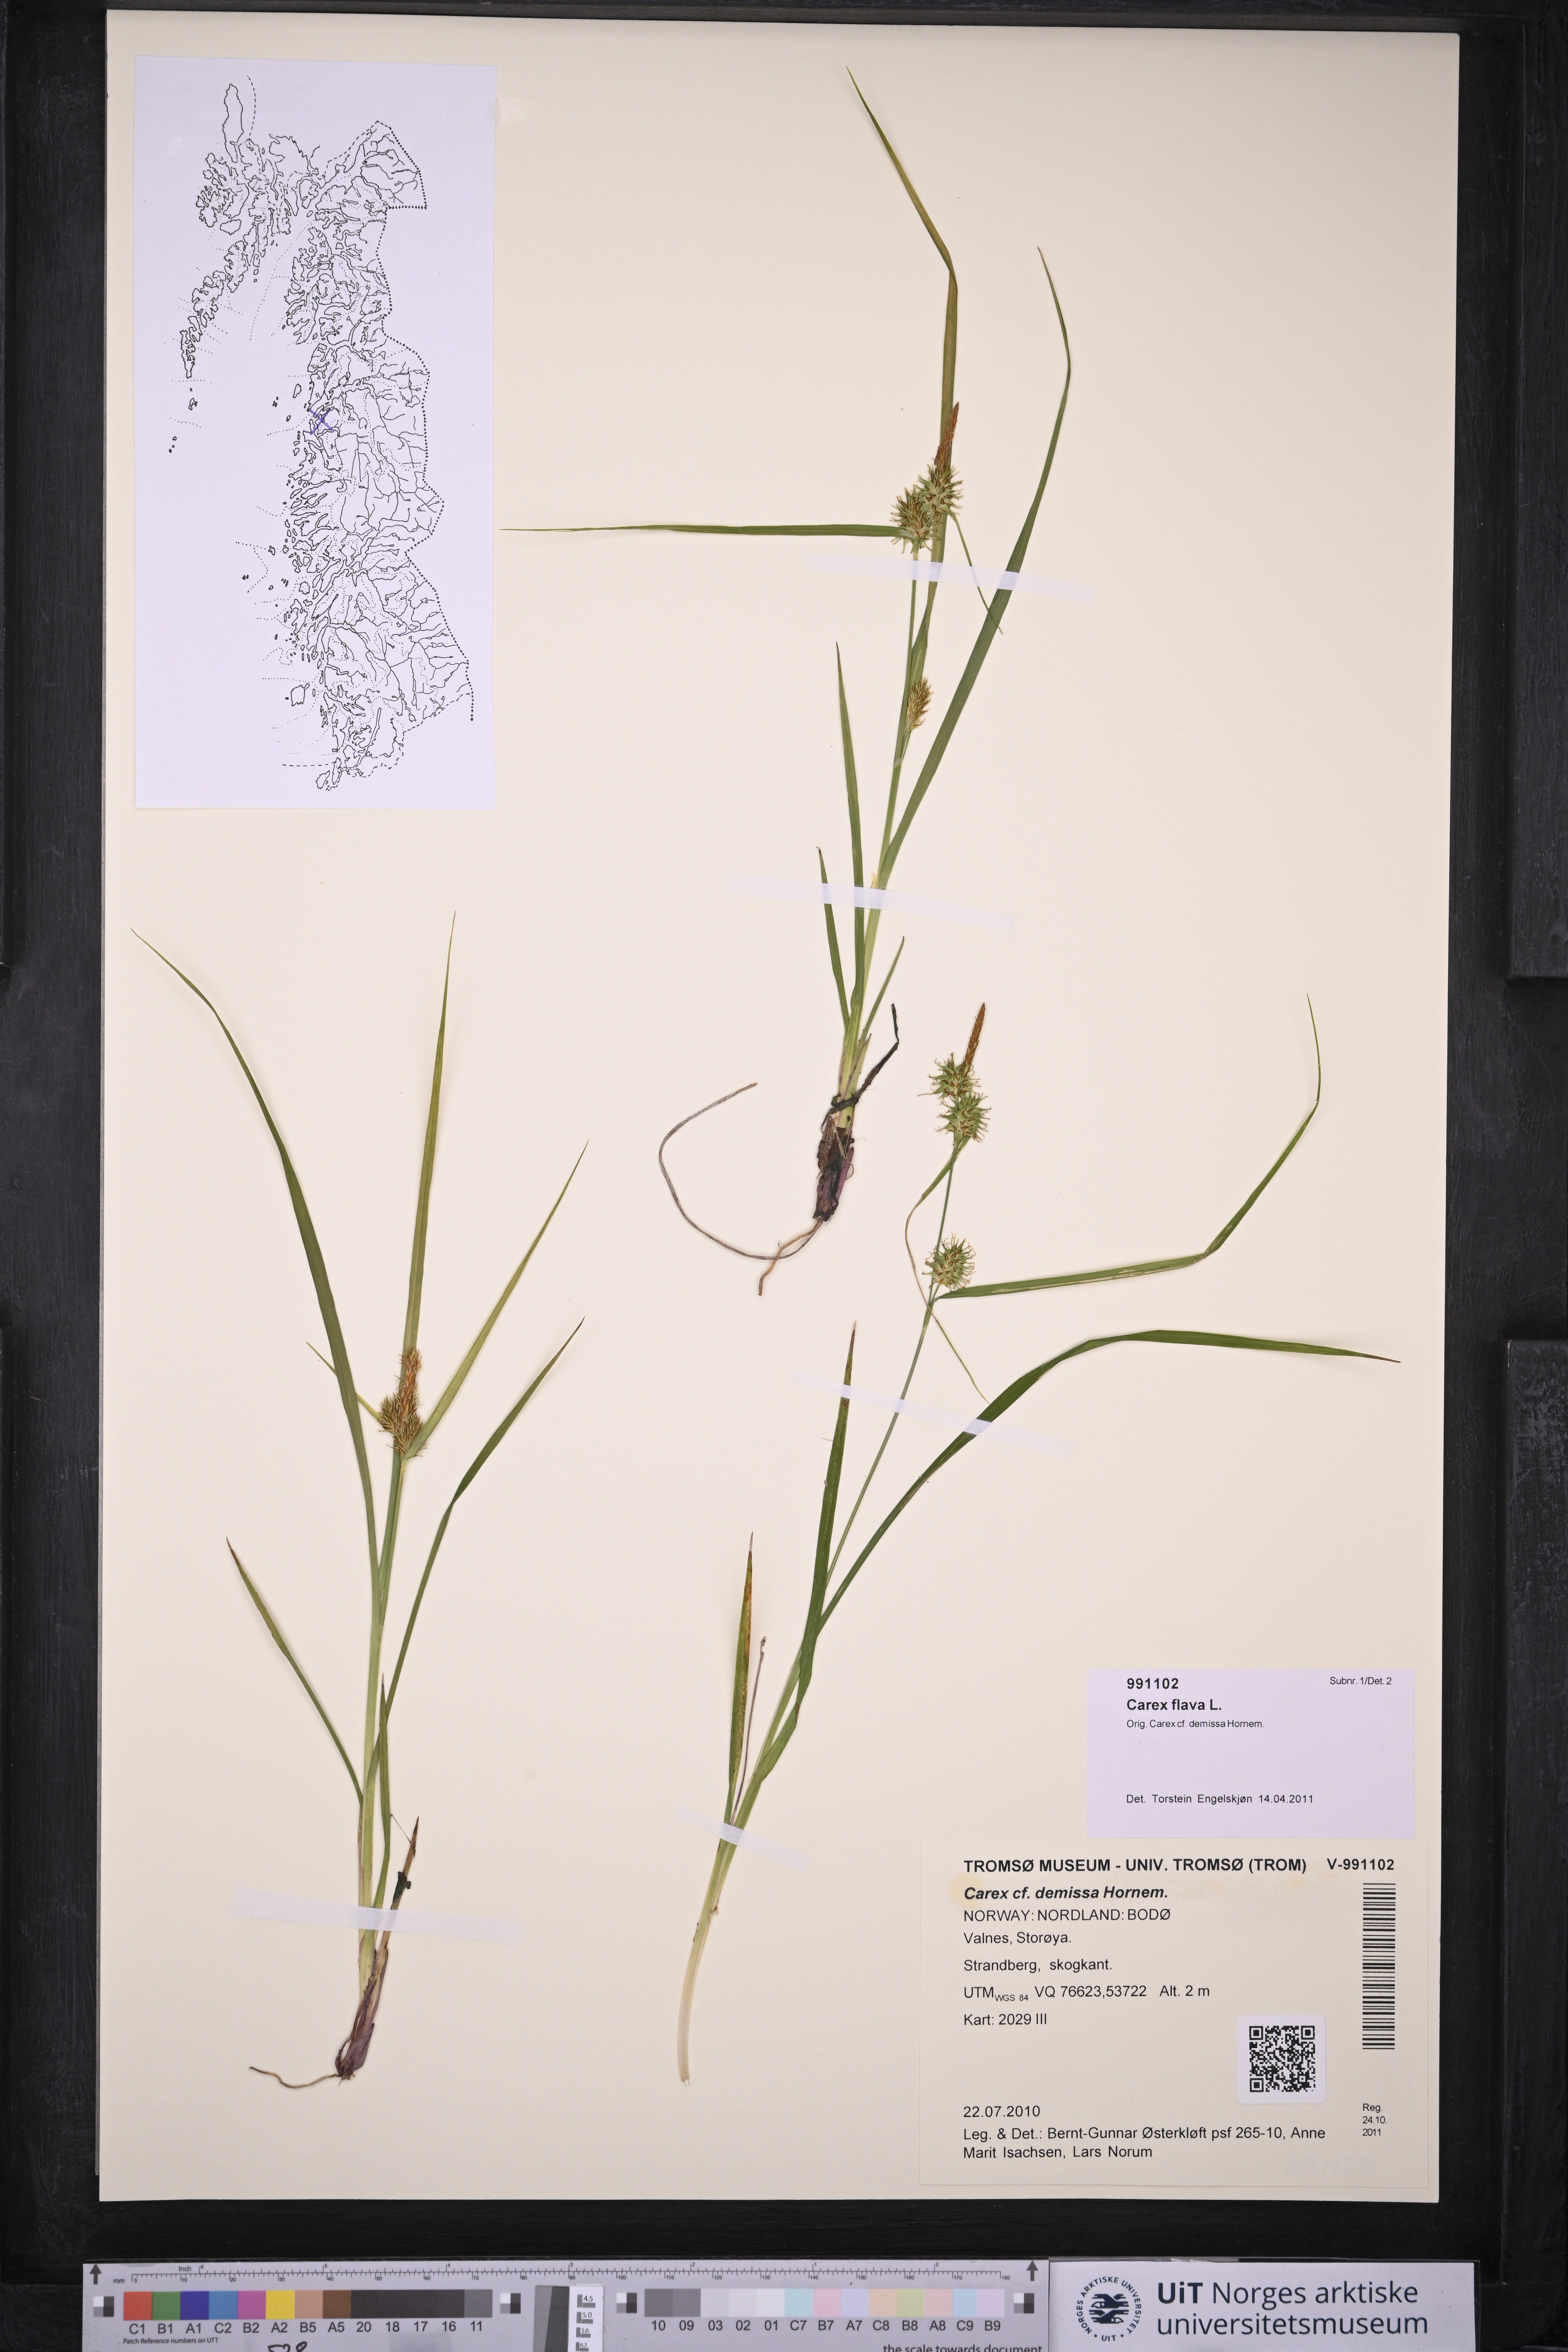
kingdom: Plantae
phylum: Tracheophyta
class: Liliopsida
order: Poales
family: Cyperaceae
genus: Carex
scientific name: Carex flava
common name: Large yellow-sedge
